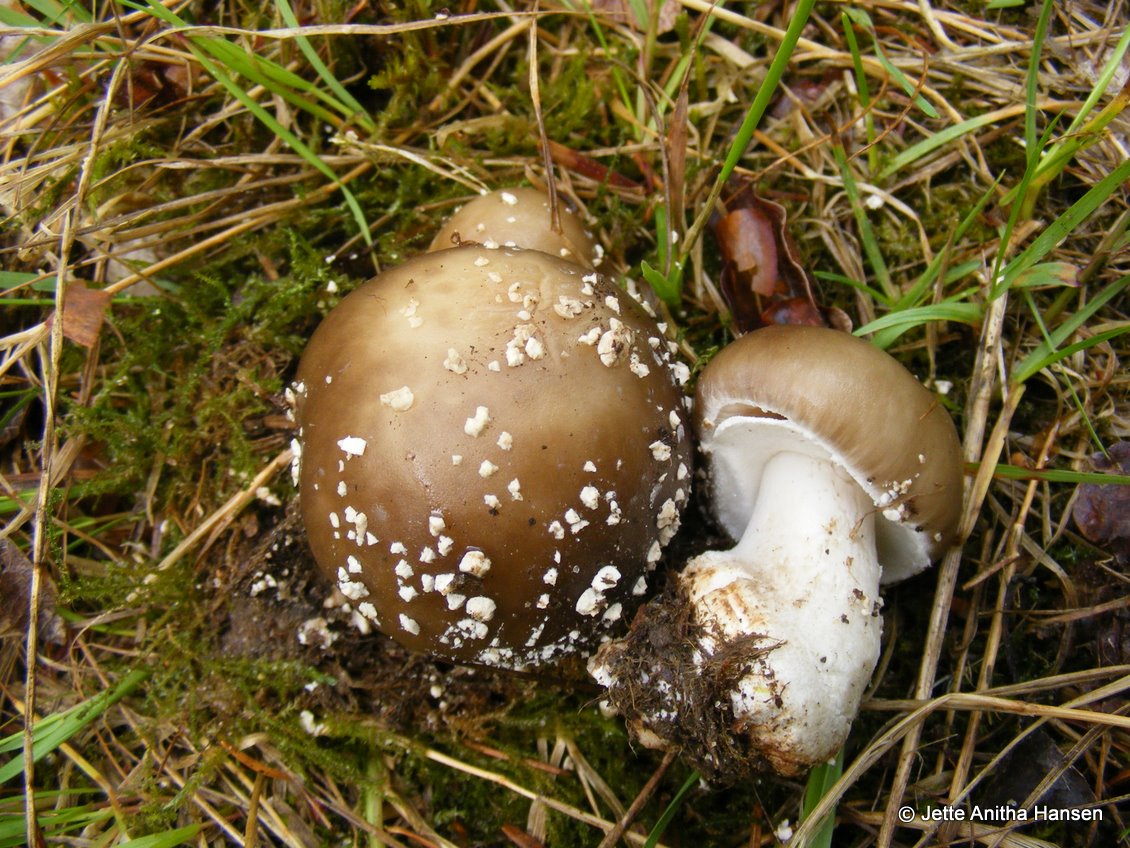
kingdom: Fungi
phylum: Basidiomycota
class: Agaricomycetes
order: Agaricales
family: Amanitaceae
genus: Amanita
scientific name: Amanita
